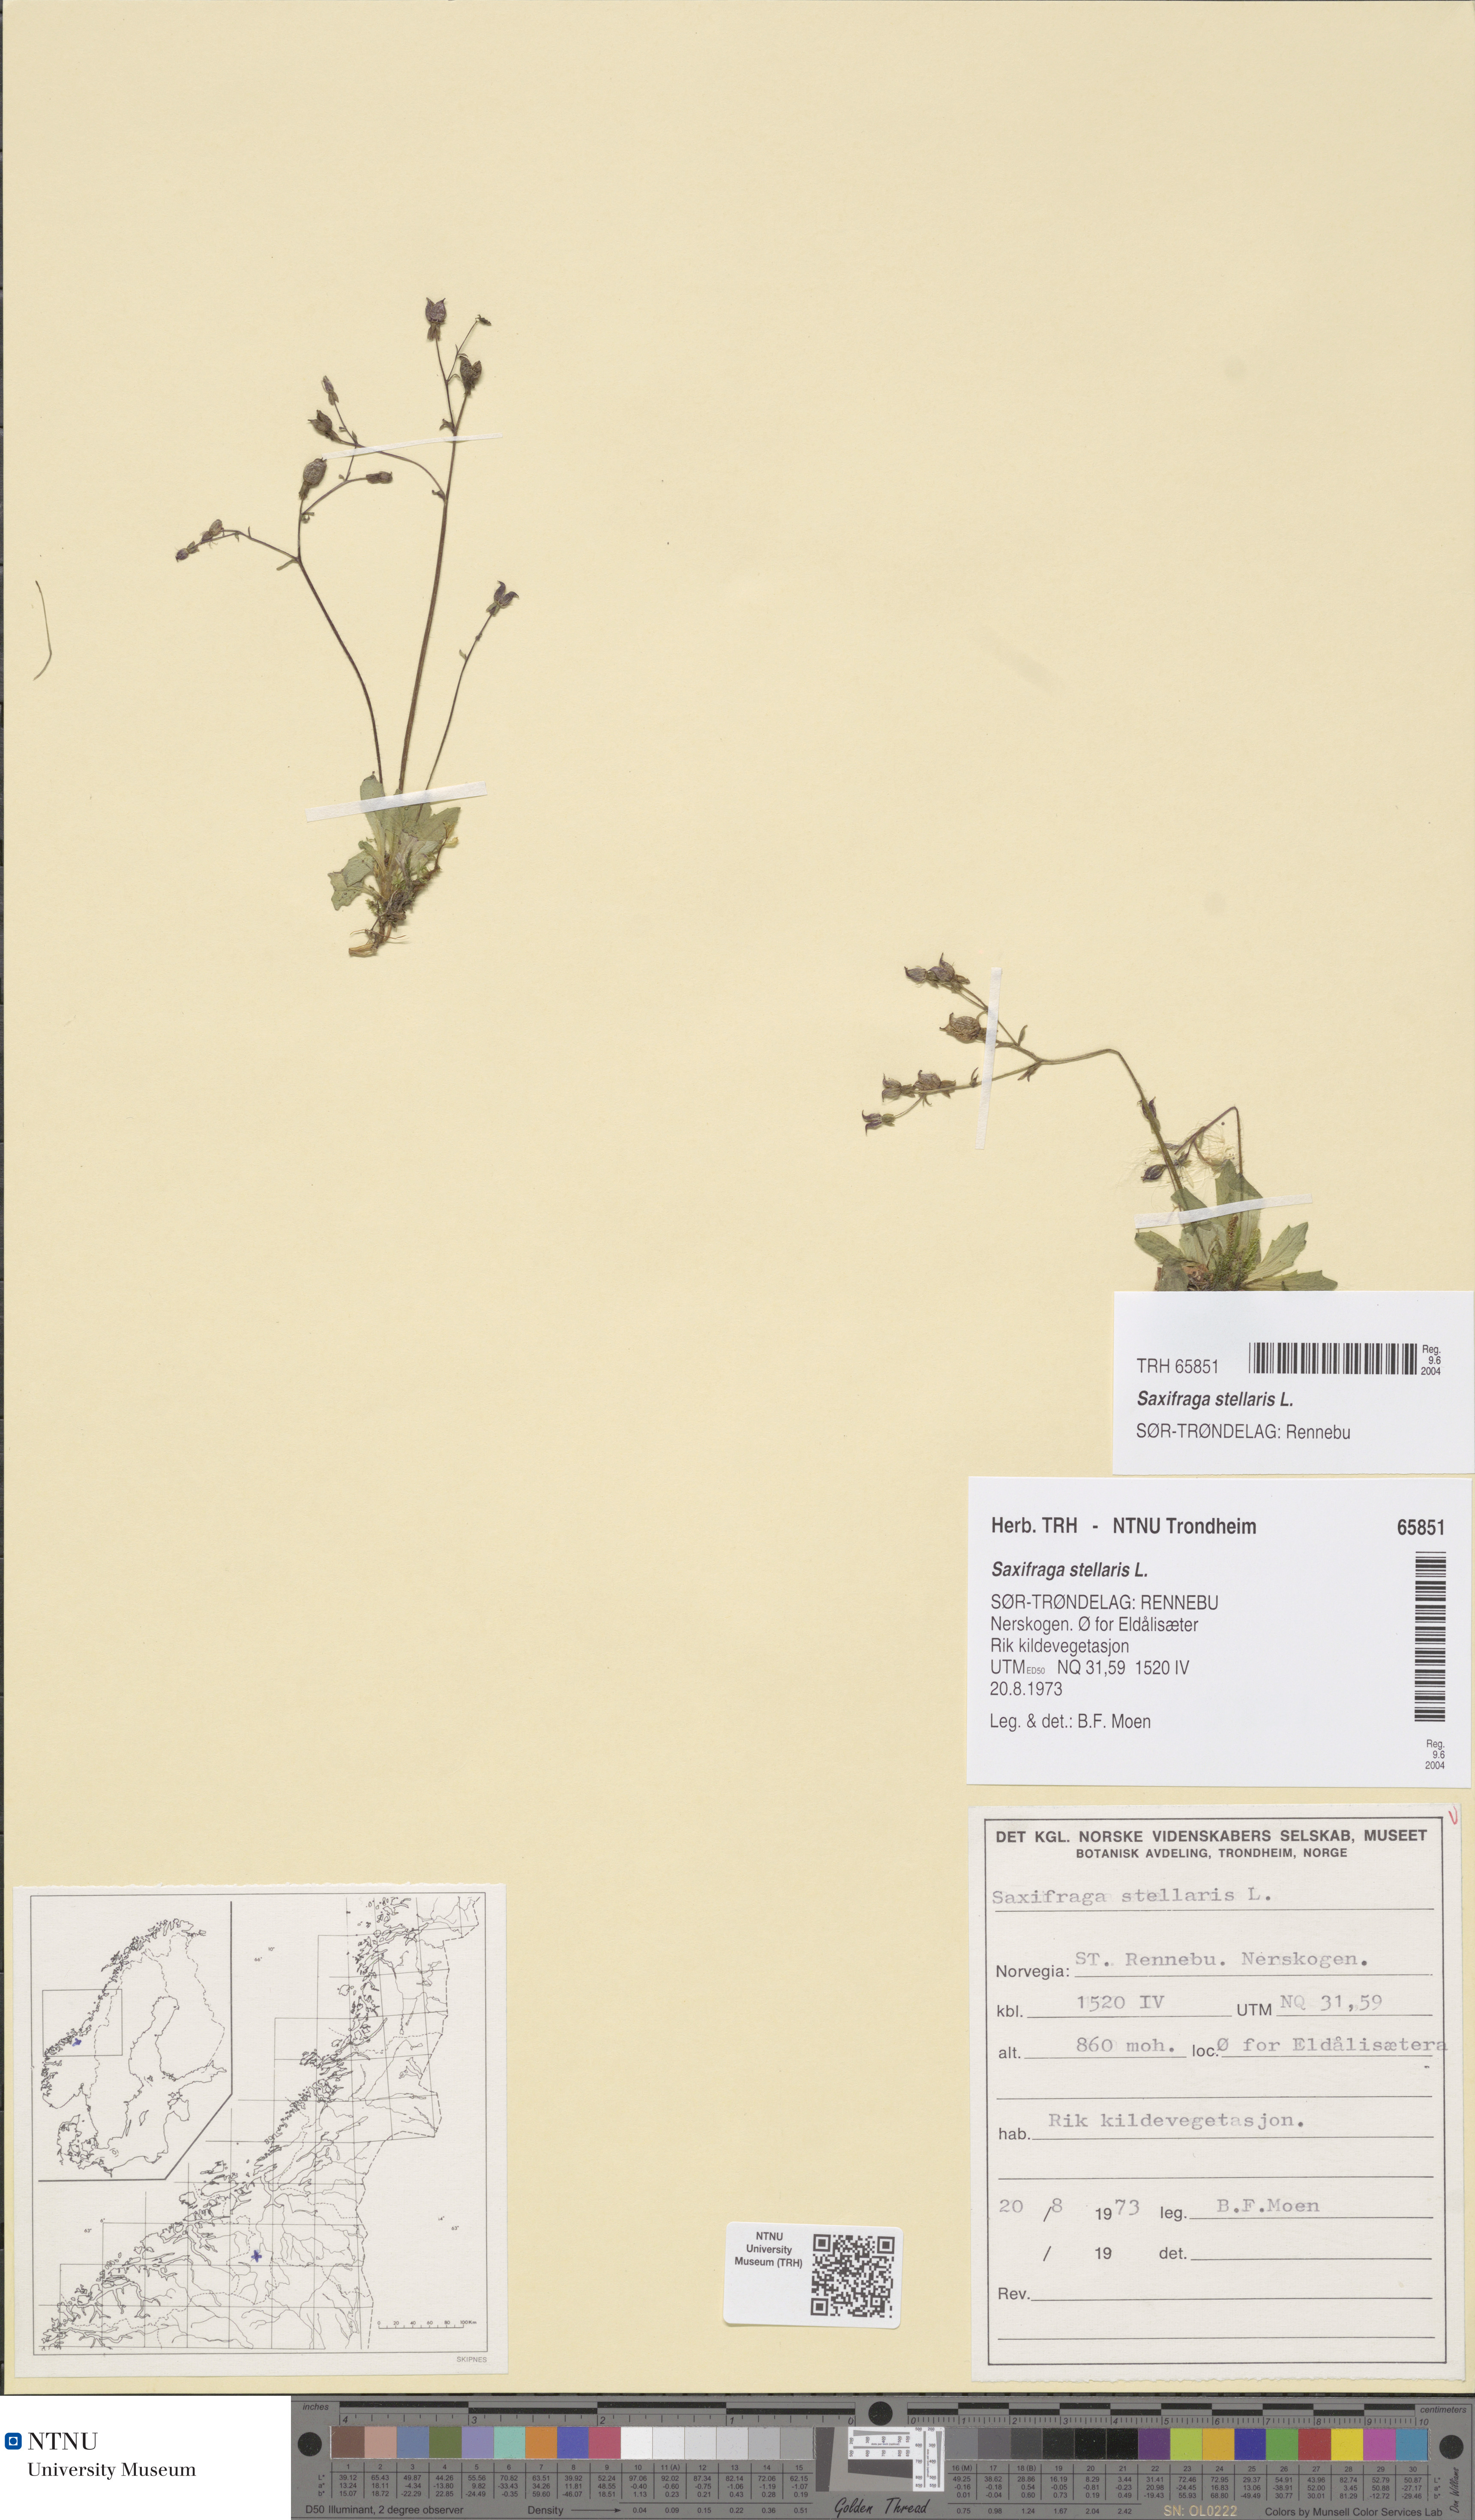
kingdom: Plantae
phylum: Tracheophyta
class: Magnoliopsida
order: Saxifragales
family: Saxifragaceae
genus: Micranthes
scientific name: Micranthes stellaris
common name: Starry saxifrage
